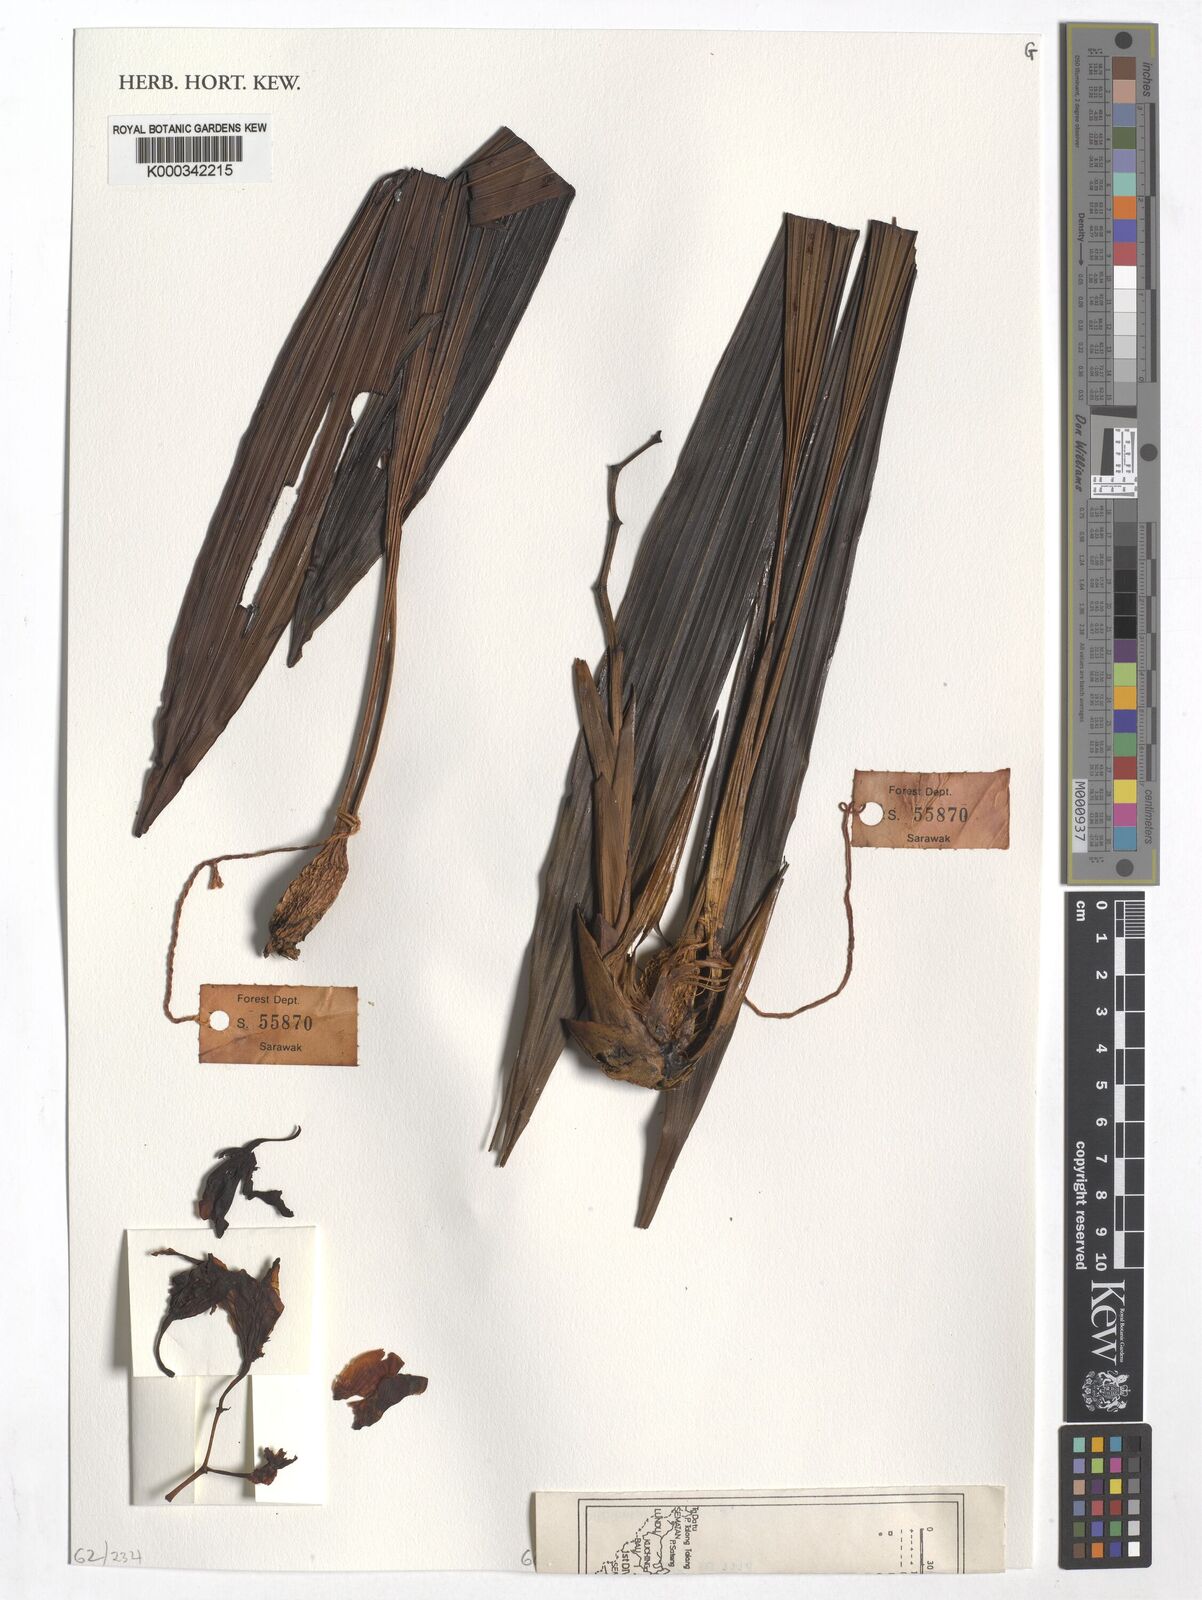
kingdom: Plantae
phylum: Tracheophyta
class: Liliopsida
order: Asparagales
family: Orchidaceae
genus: Coelogyne
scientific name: Coelogyne hirtella
